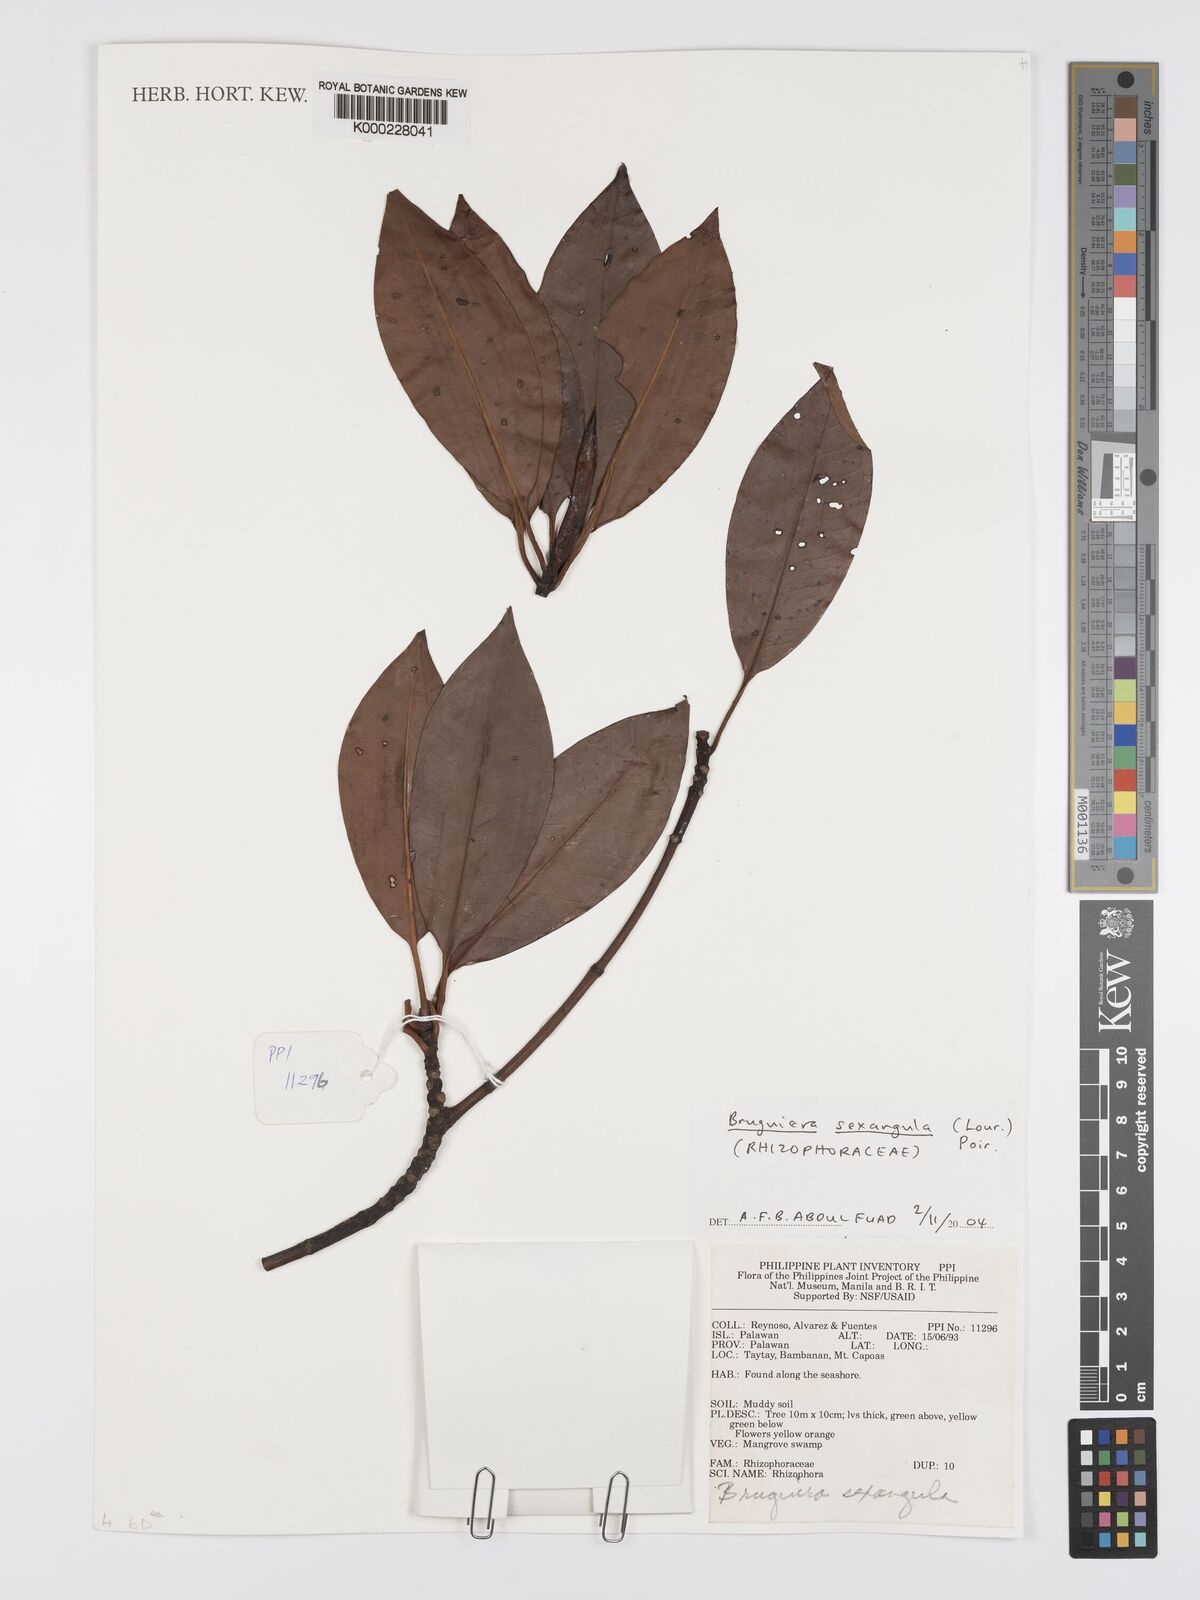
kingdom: Plantae
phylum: Tracheophyta
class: Magnoliopsida
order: Malpighiales
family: Rhizophoraceae
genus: Bruguiera
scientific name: Bruguiera sexangula
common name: Oriental mangrove
